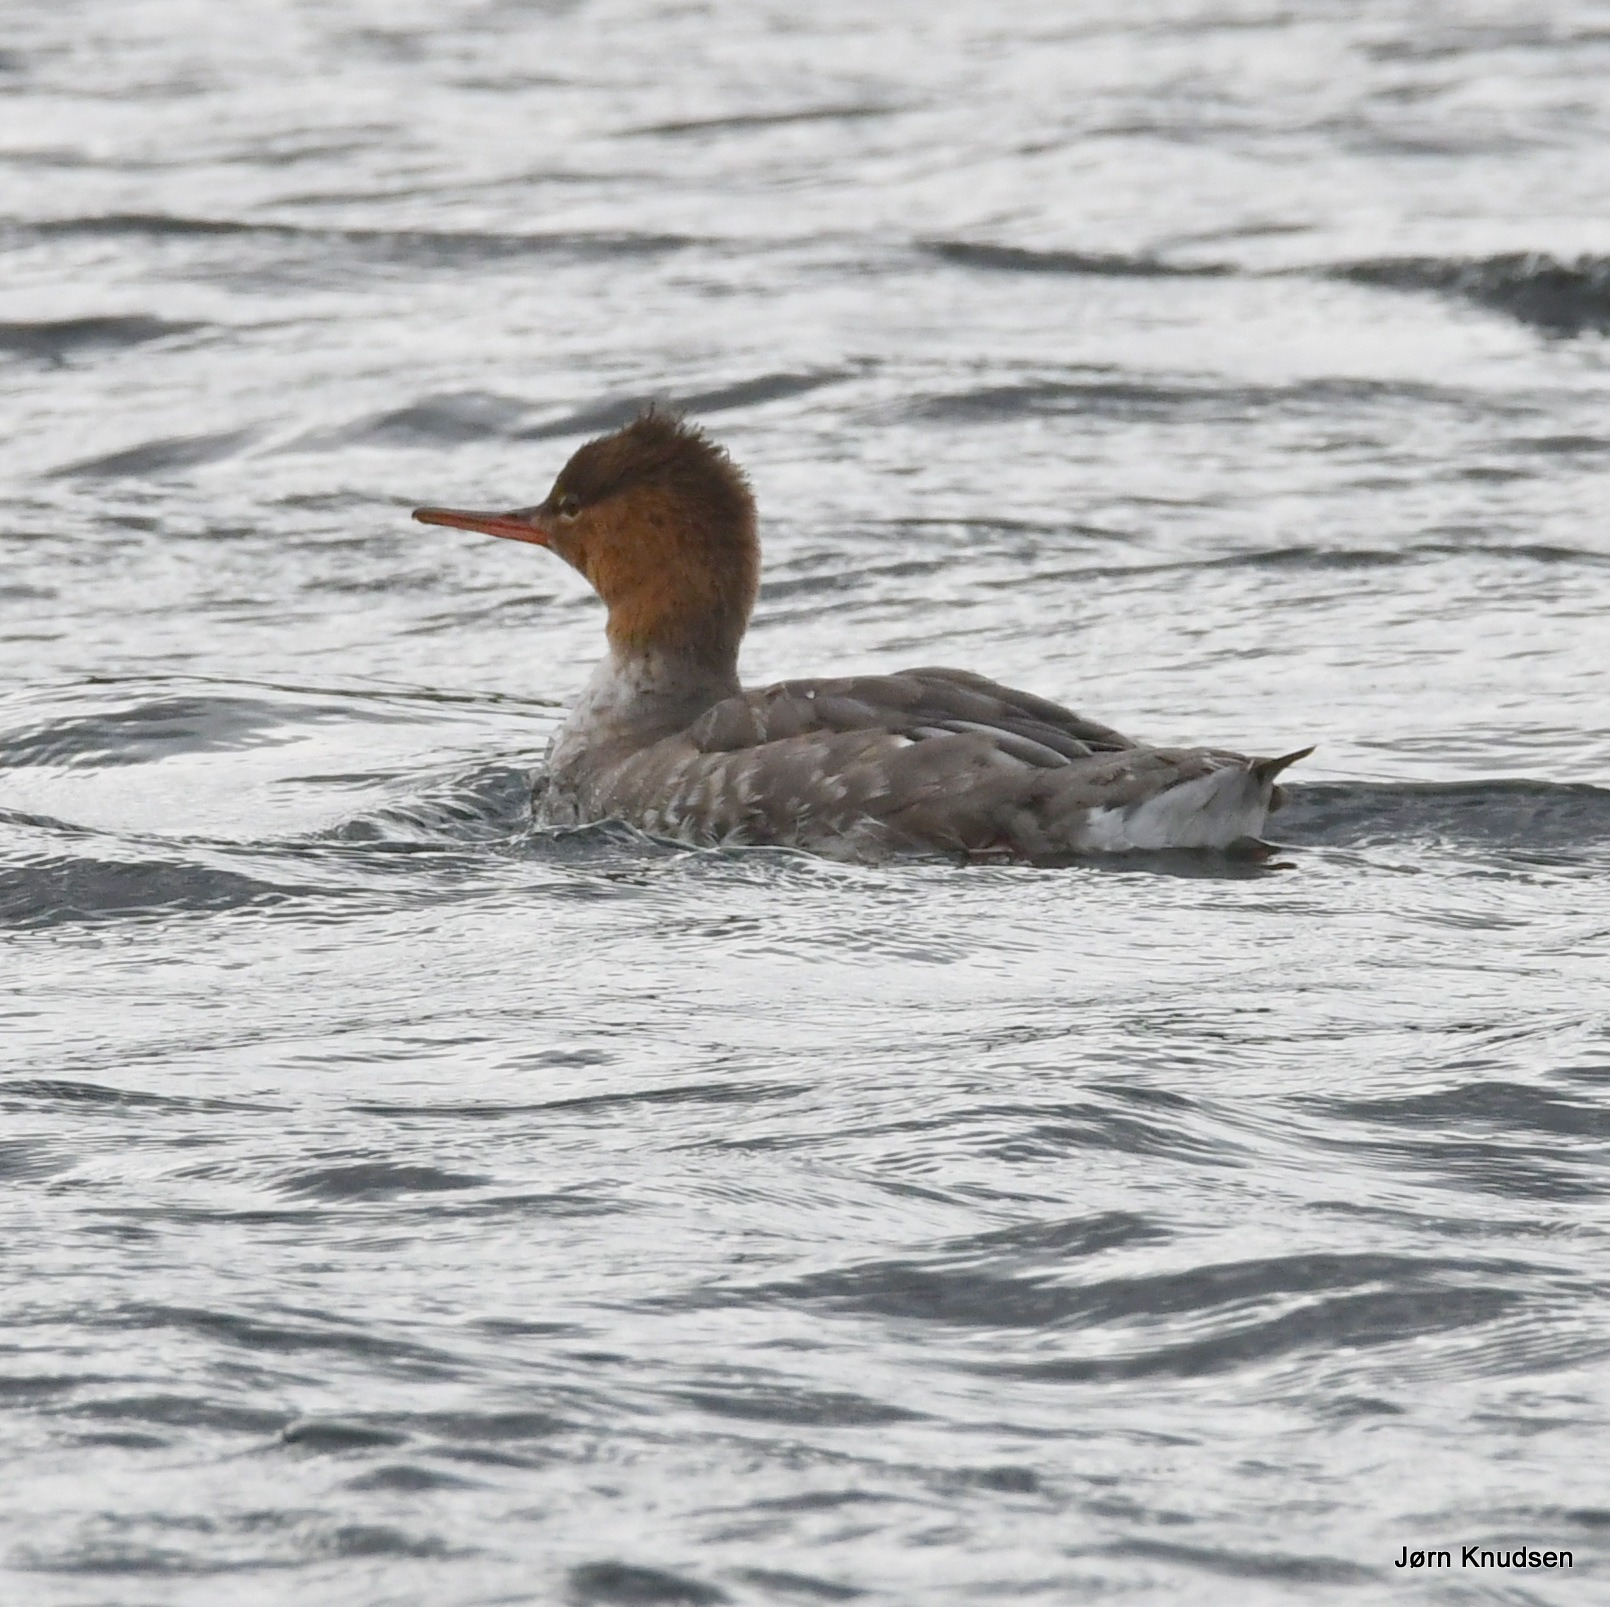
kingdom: Animalia
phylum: Chordata
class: Aves
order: Anseriformes
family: Anatidae
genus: Mergus
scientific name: Mergus serrator
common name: Toppet skallesluger
